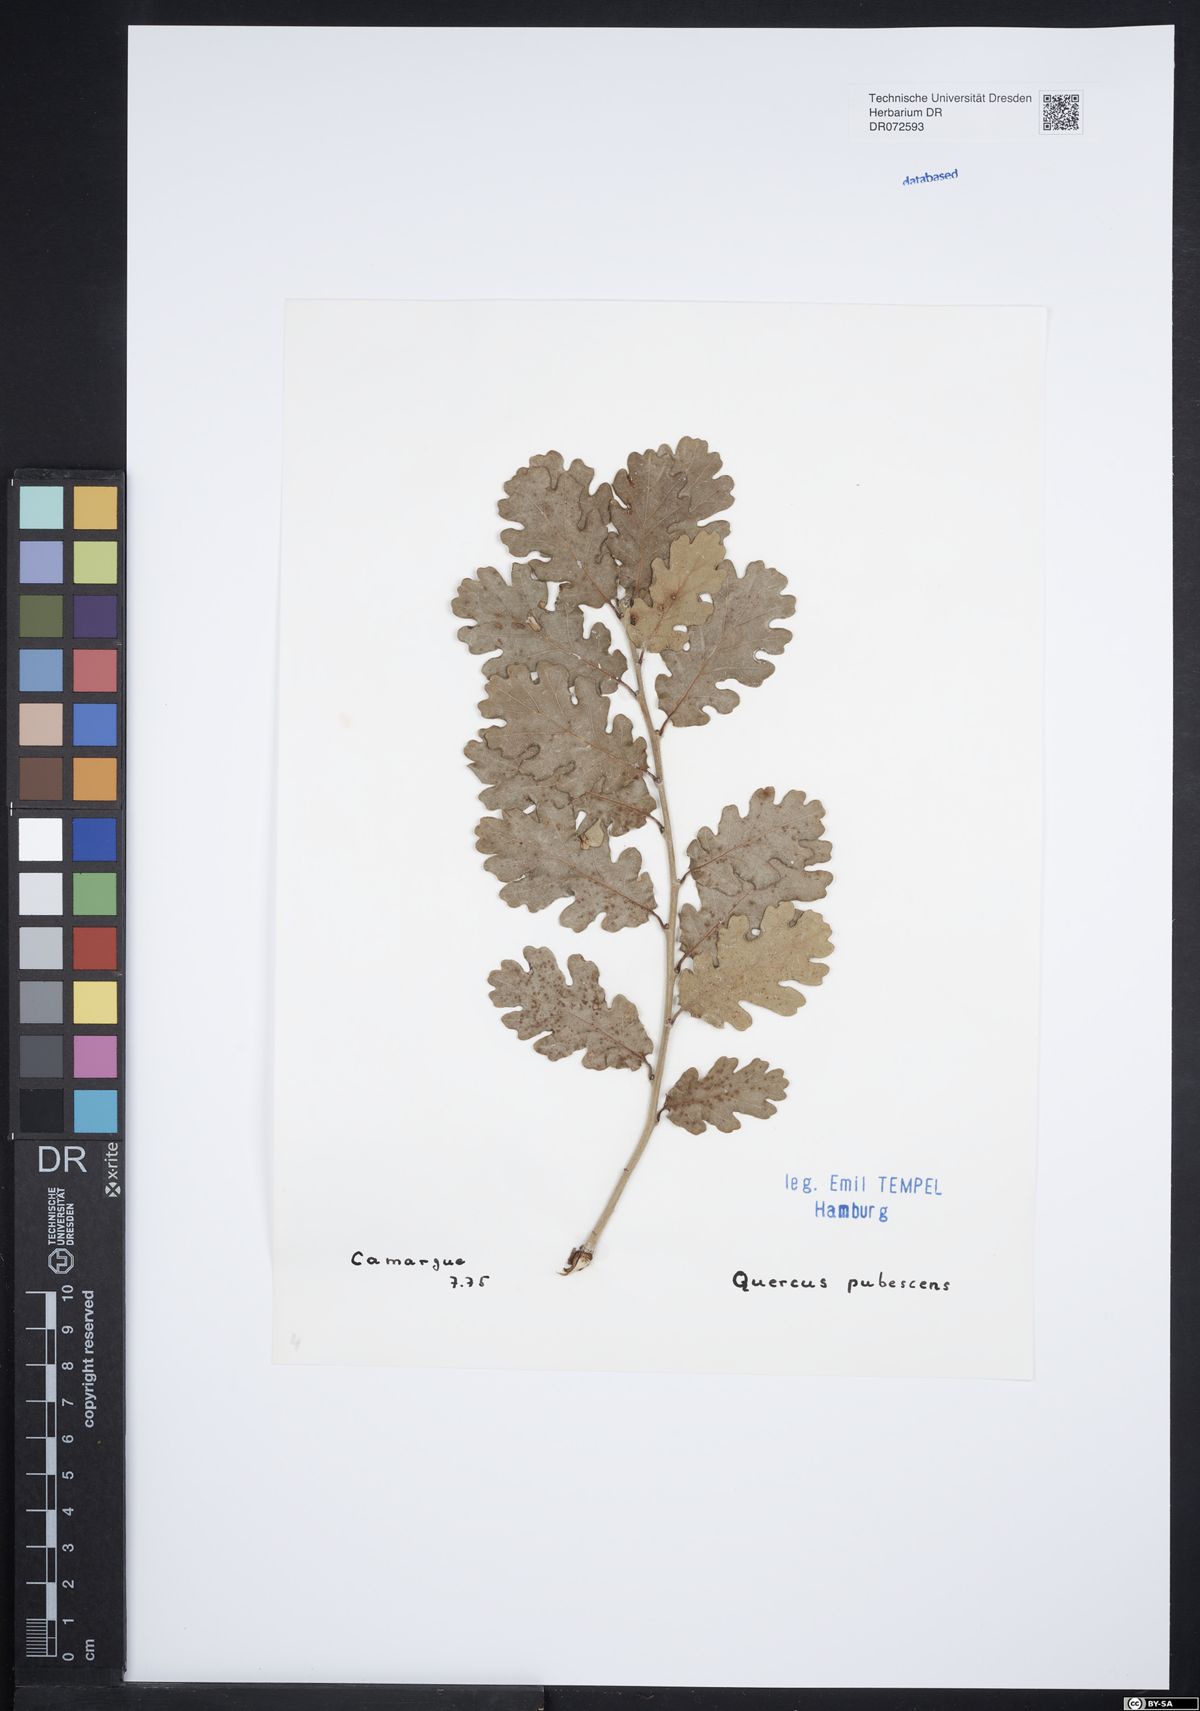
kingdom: Plantae
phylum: Tracheophyta
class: Magnoliopsida
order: Fagales
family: Fagaceae
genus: Quercus
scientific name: Quercus pubescens
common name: Downy oak
